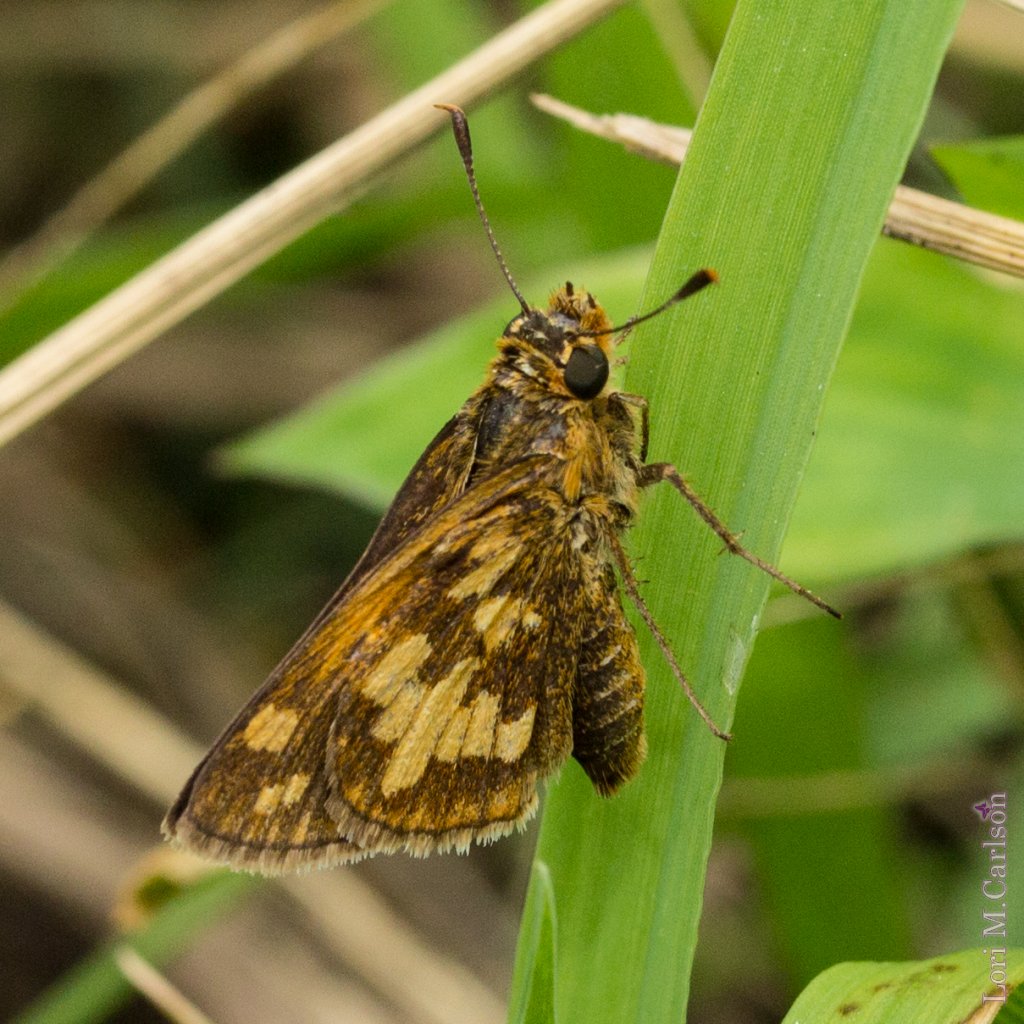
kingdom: Animalia
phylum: Arthropoda
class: Insecta
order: Lepidoptera
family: Hesperiidae
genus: Polites
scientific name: Polites coras
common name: Peck's Skipper
